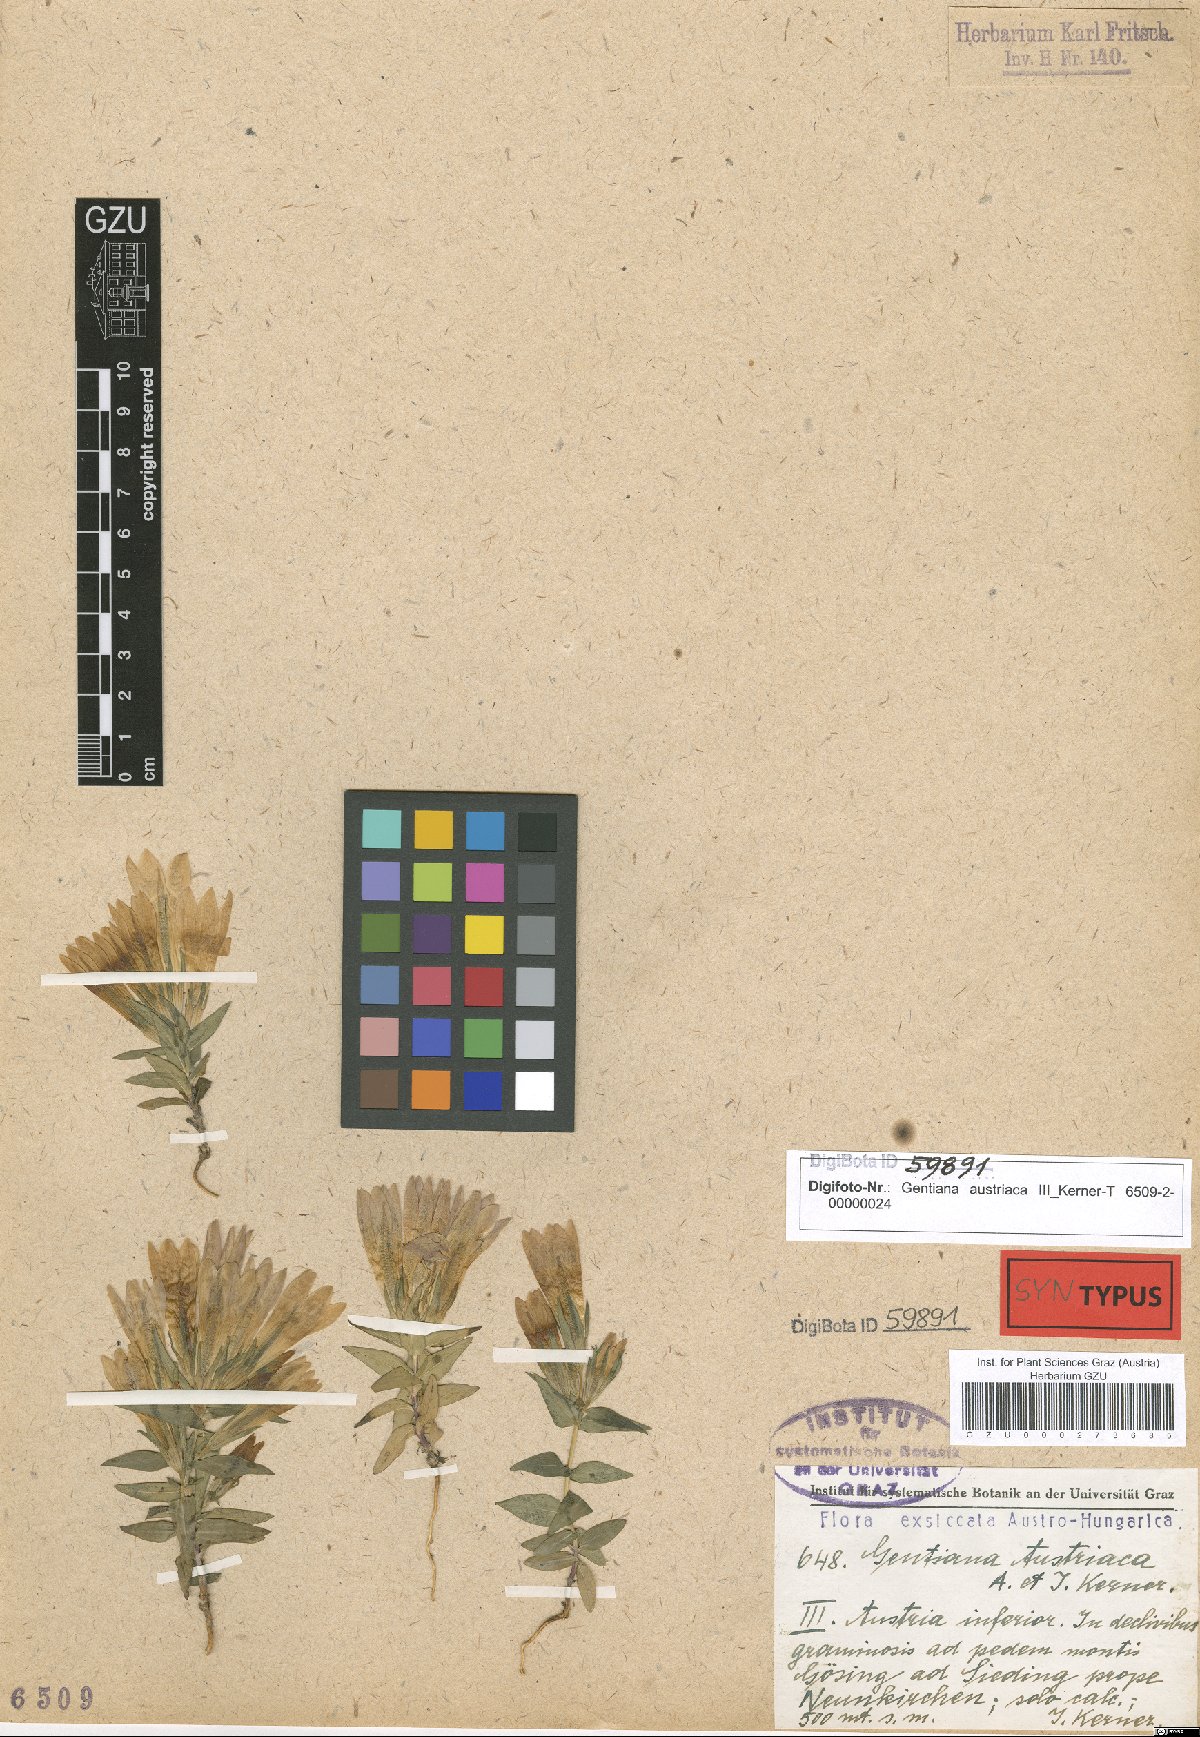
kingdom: Plantae
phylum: Tracheophyta
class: Magnoliopsida
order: Gentianales
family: Gentianaceae
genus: Gentianella
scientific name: Gentianella austriaca
